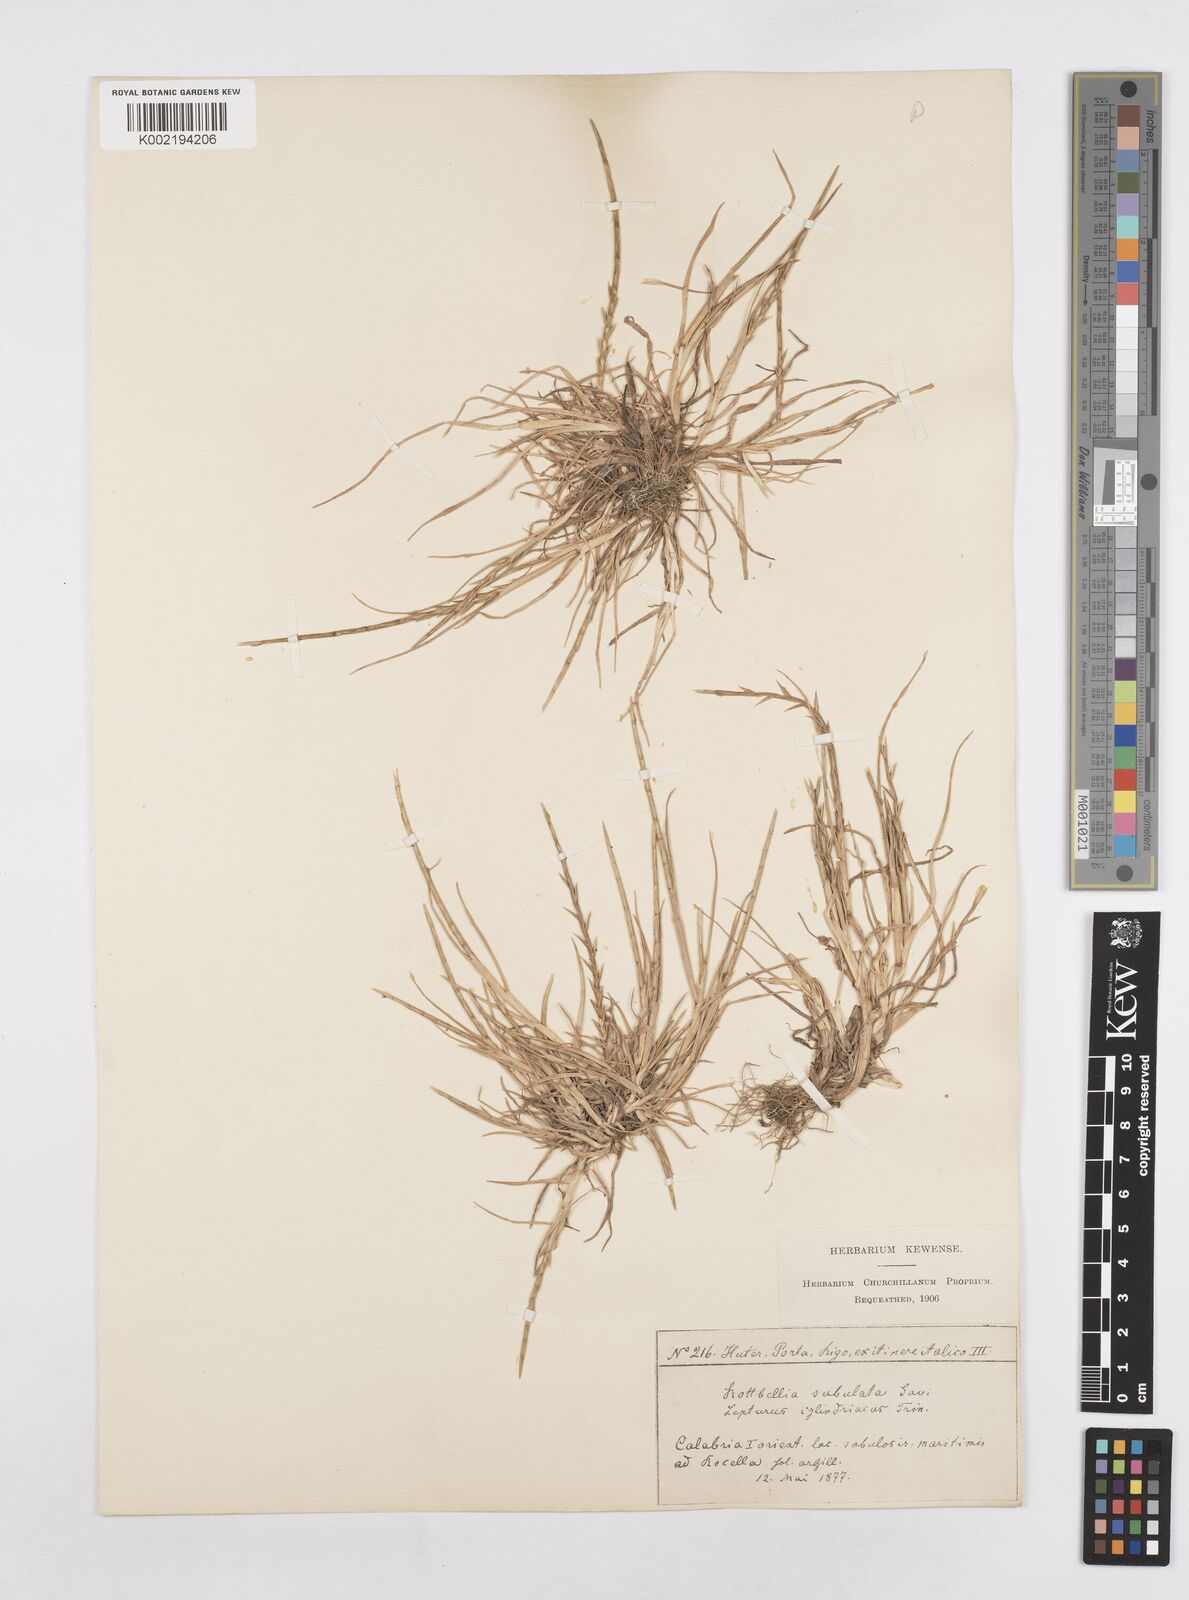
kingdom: Plantae
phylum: Tracheophyta
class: Liliopsida
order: Poales
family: Poaceae
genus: Parapholis
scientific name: Parapholis cylindrica
